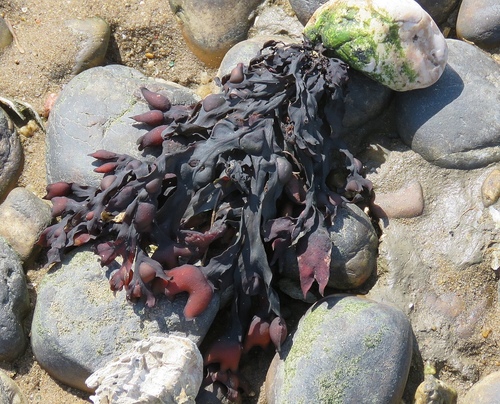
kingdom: Chromista
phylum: Ochrophyta
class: Phaeophyceae
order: Fucales
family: Fucaceae
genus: Fucus
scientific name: Fucus vesiculosus
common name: Bladder wrack
